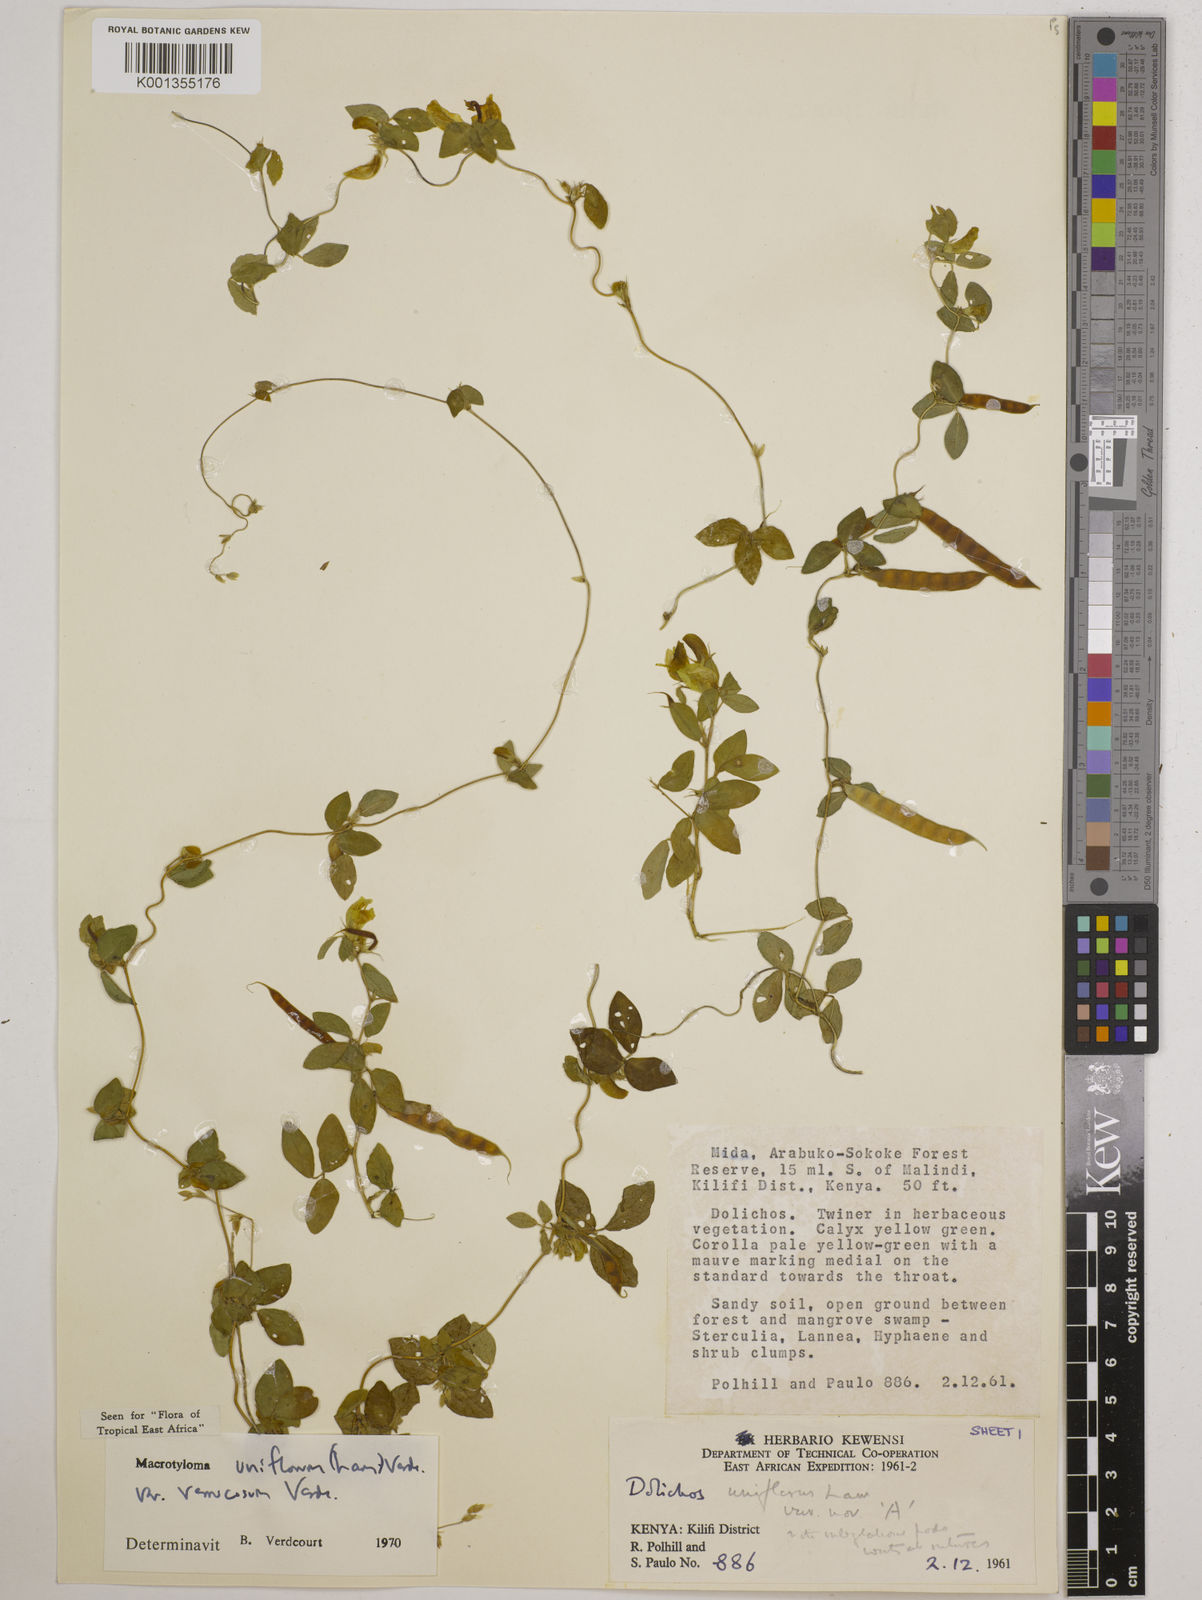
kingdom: Plantae
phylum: Tracheophyta
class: Magnoliopsida
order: Fabales
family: Fabaceae
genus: Macrotyloma
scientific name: Macrotyloma
